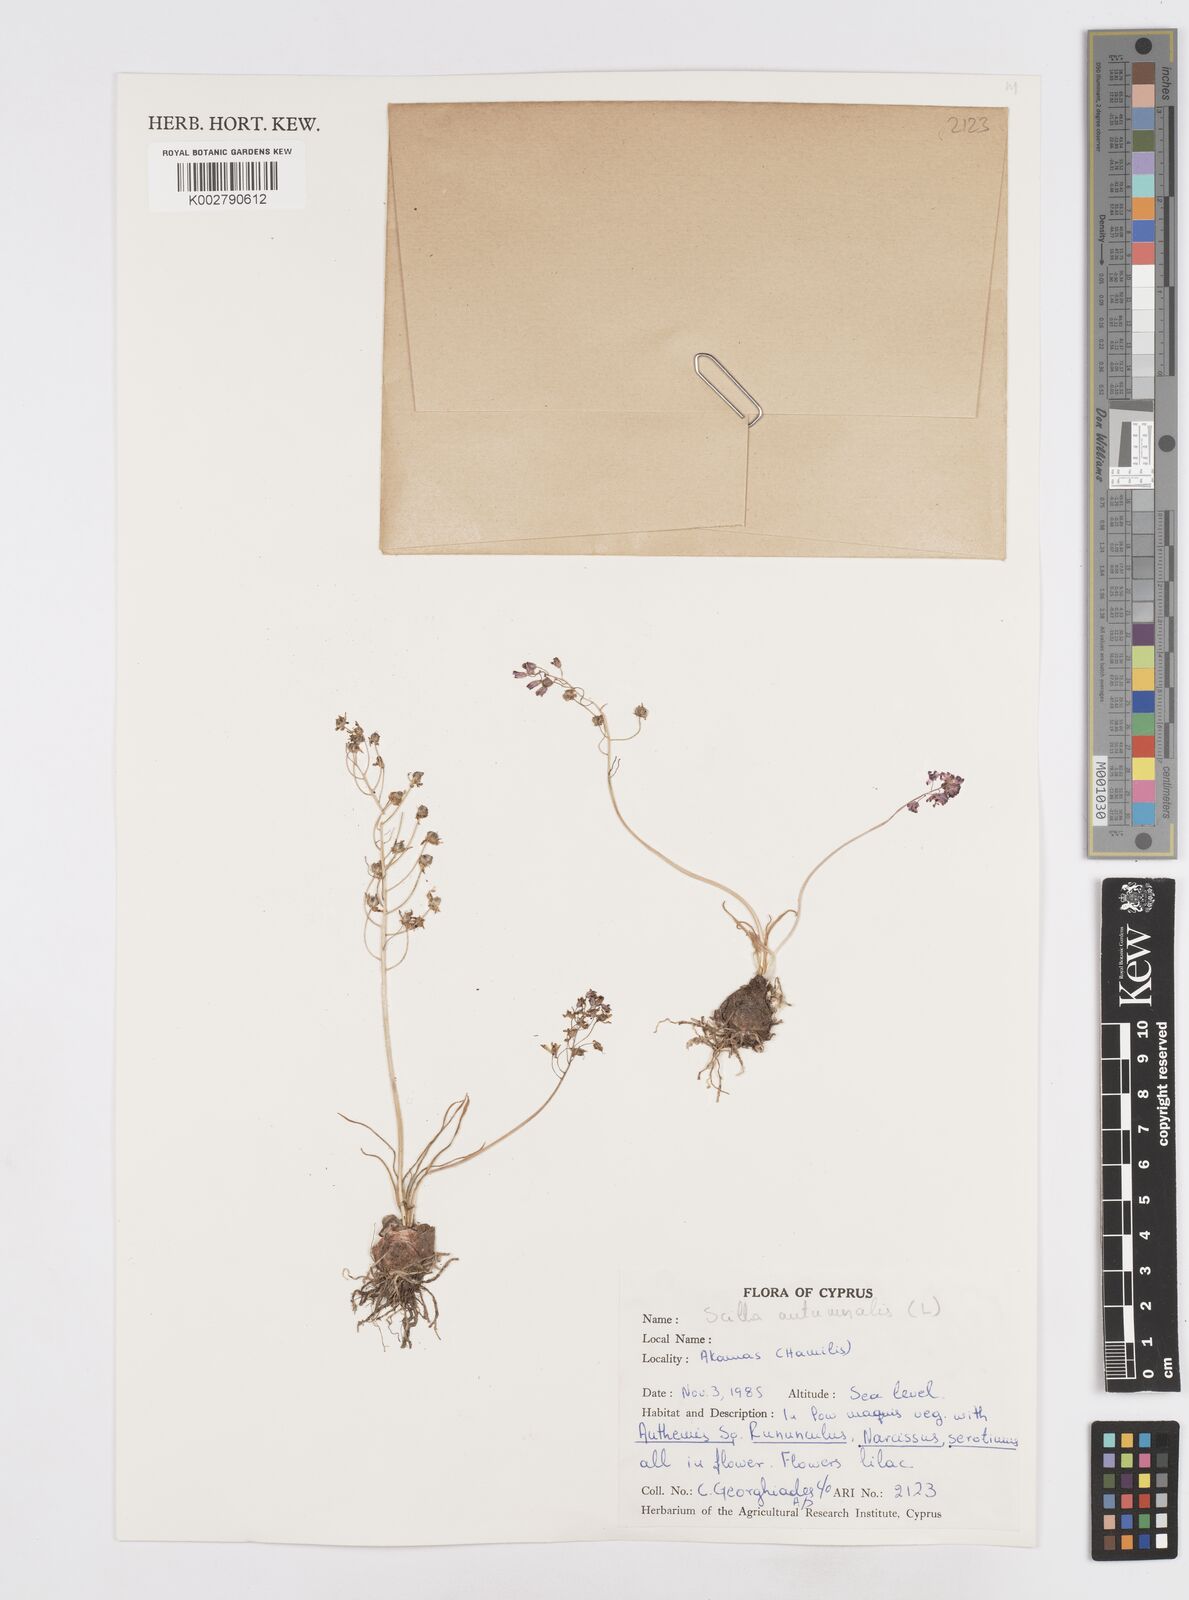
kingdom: Plantae
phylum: Tracheophyta
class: Liliopsida
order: Asparagales
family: Asparagaceae
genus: Prospero
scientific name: Prospero autumnale
